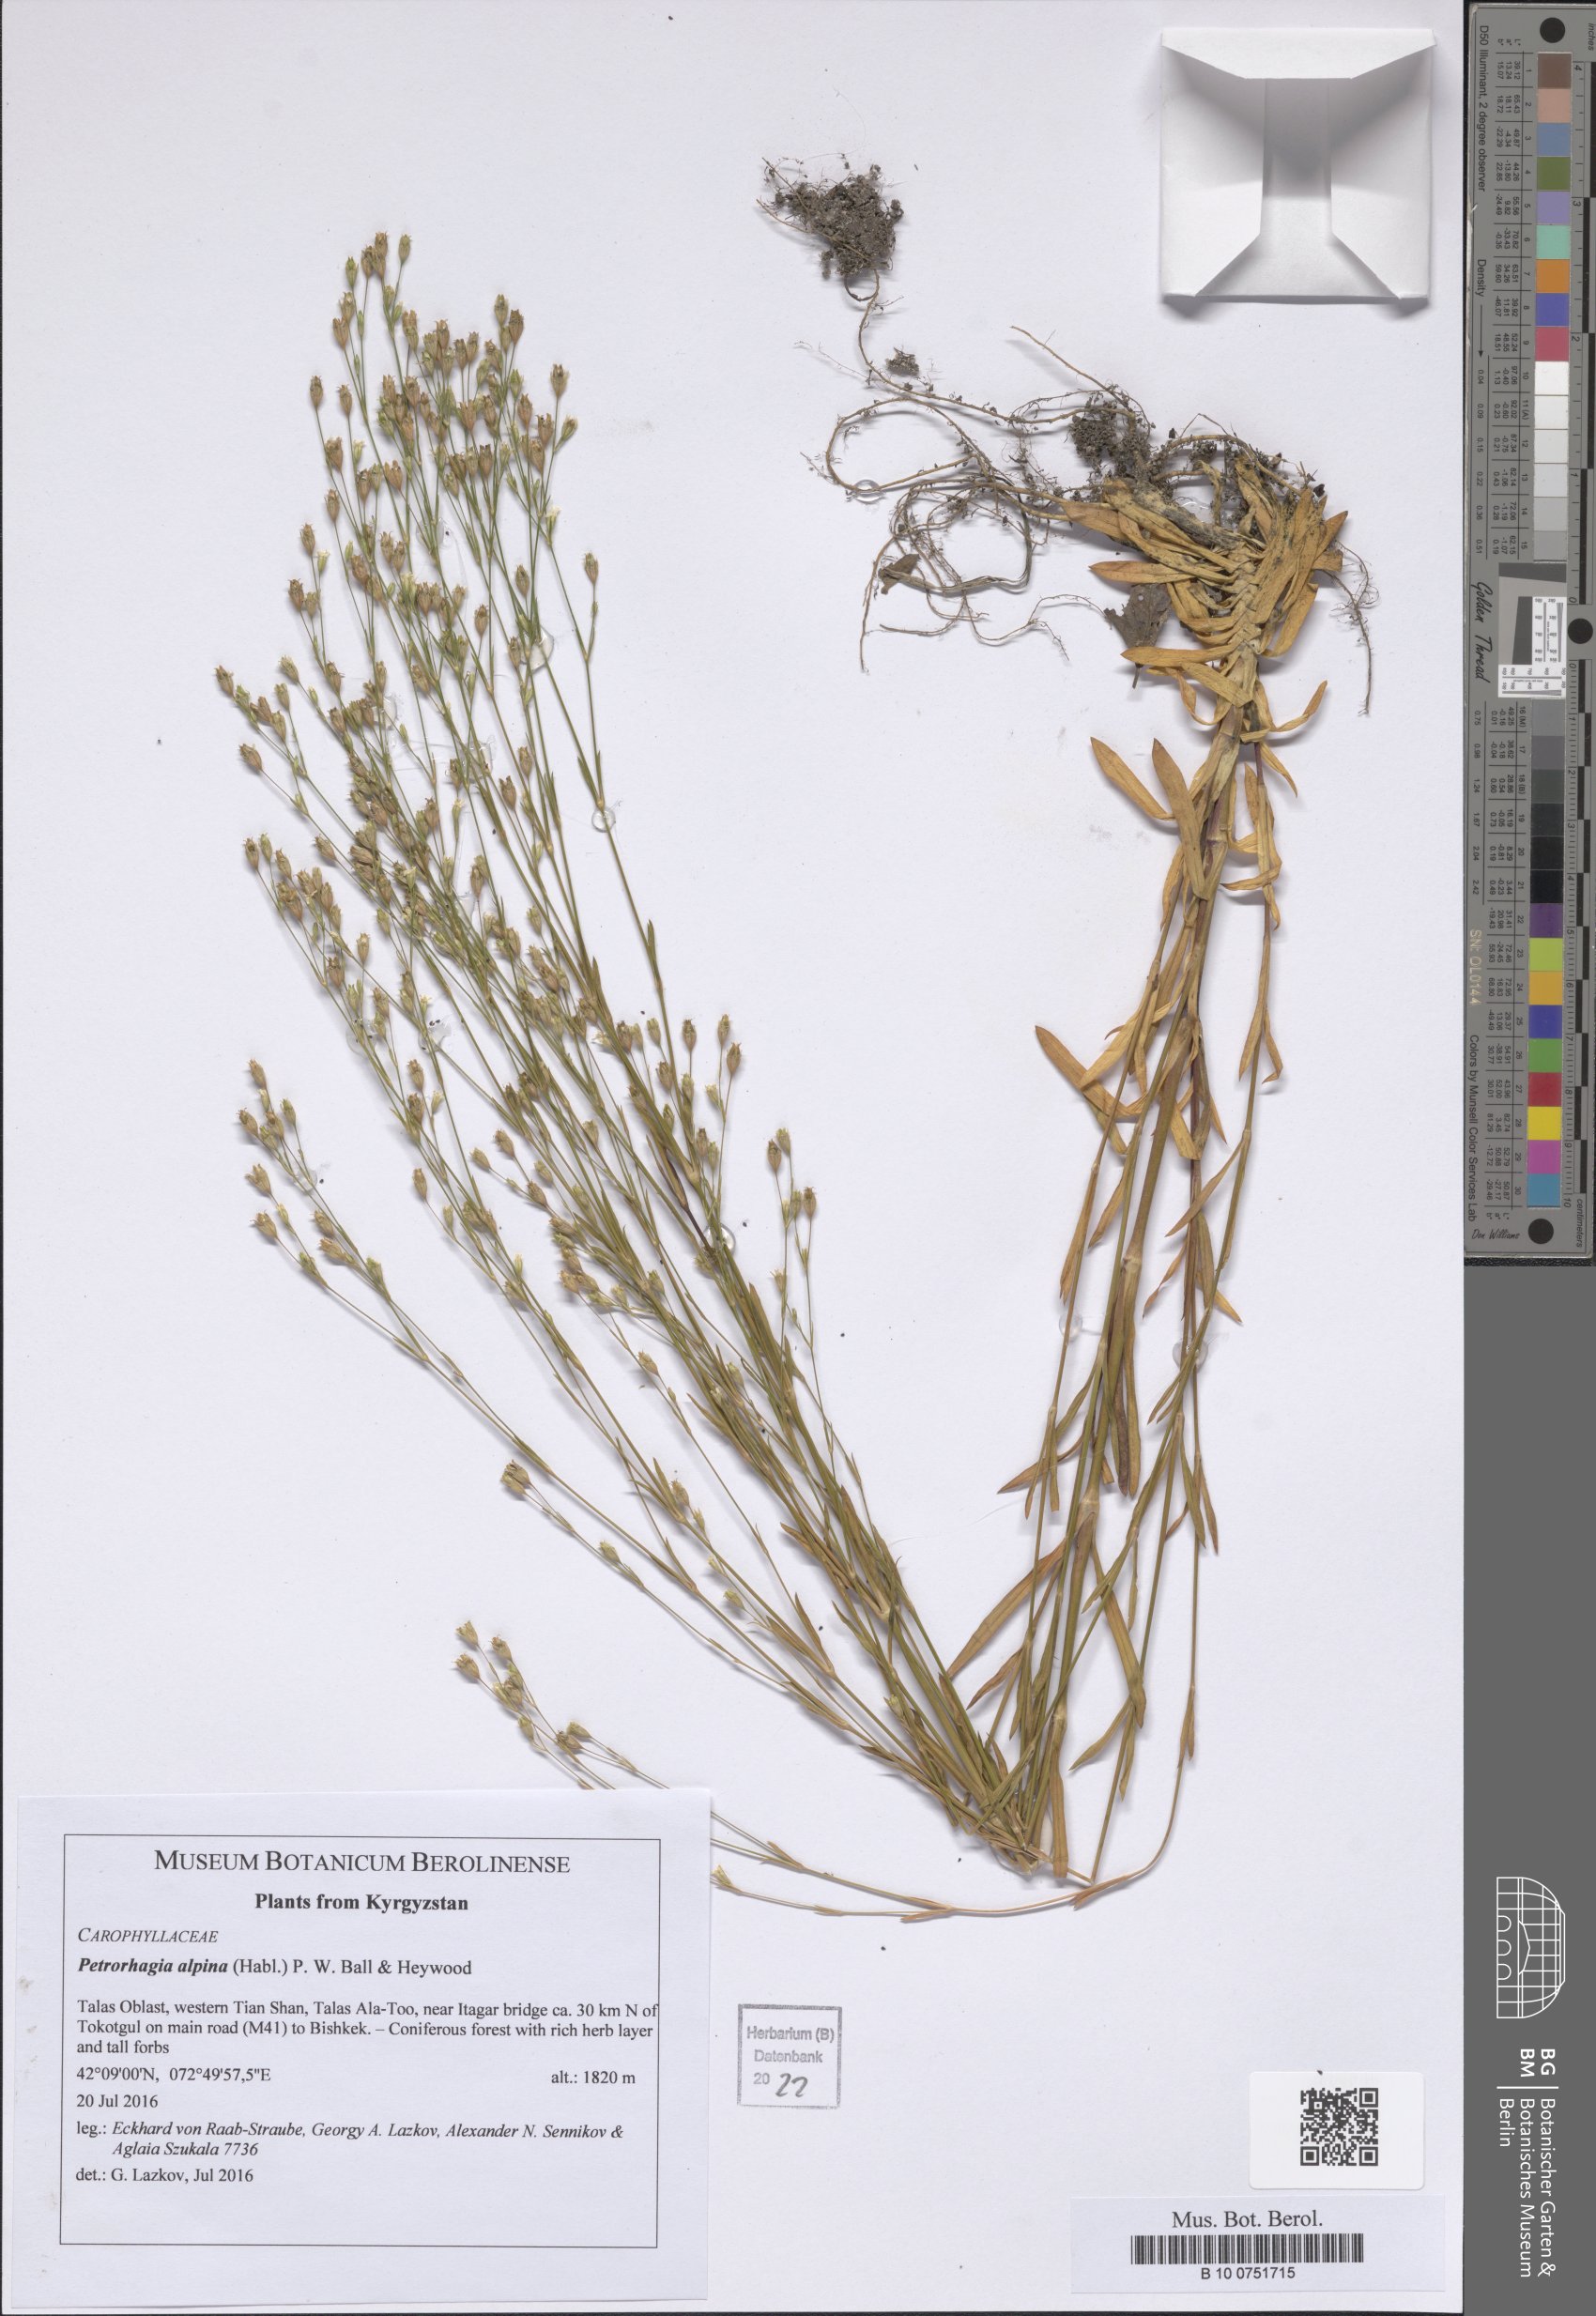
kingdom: Plantae
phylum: Tracheophyta
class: Magnoliopsida
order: Caryophyllales
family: Caryophyllaceae
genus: Petrorhagia
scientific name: Petrorhagia alpina
